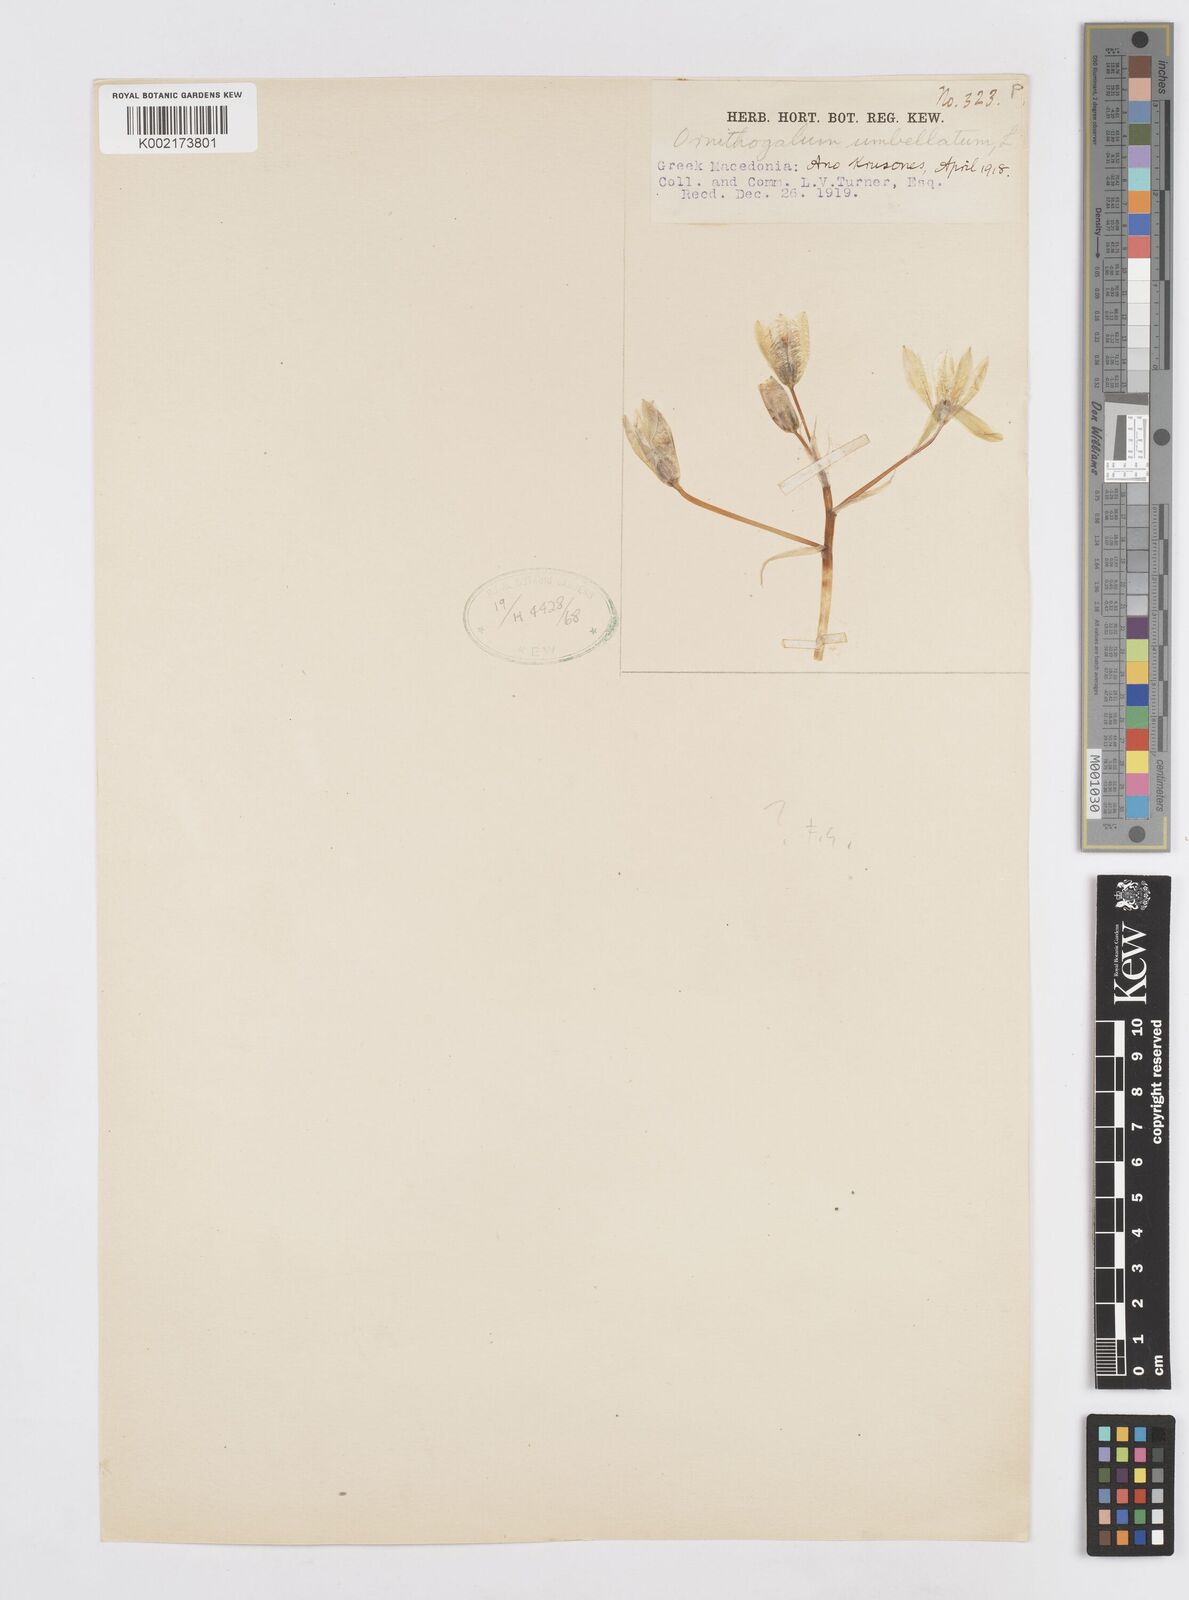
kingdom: Plantae
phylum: Tracheophyta
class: Liliopsida
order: Asparagales
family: Asparagaceae
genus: Ornithogalum
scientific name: Ornithogalum umbellatum
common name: Garden star-of-bethlehem
